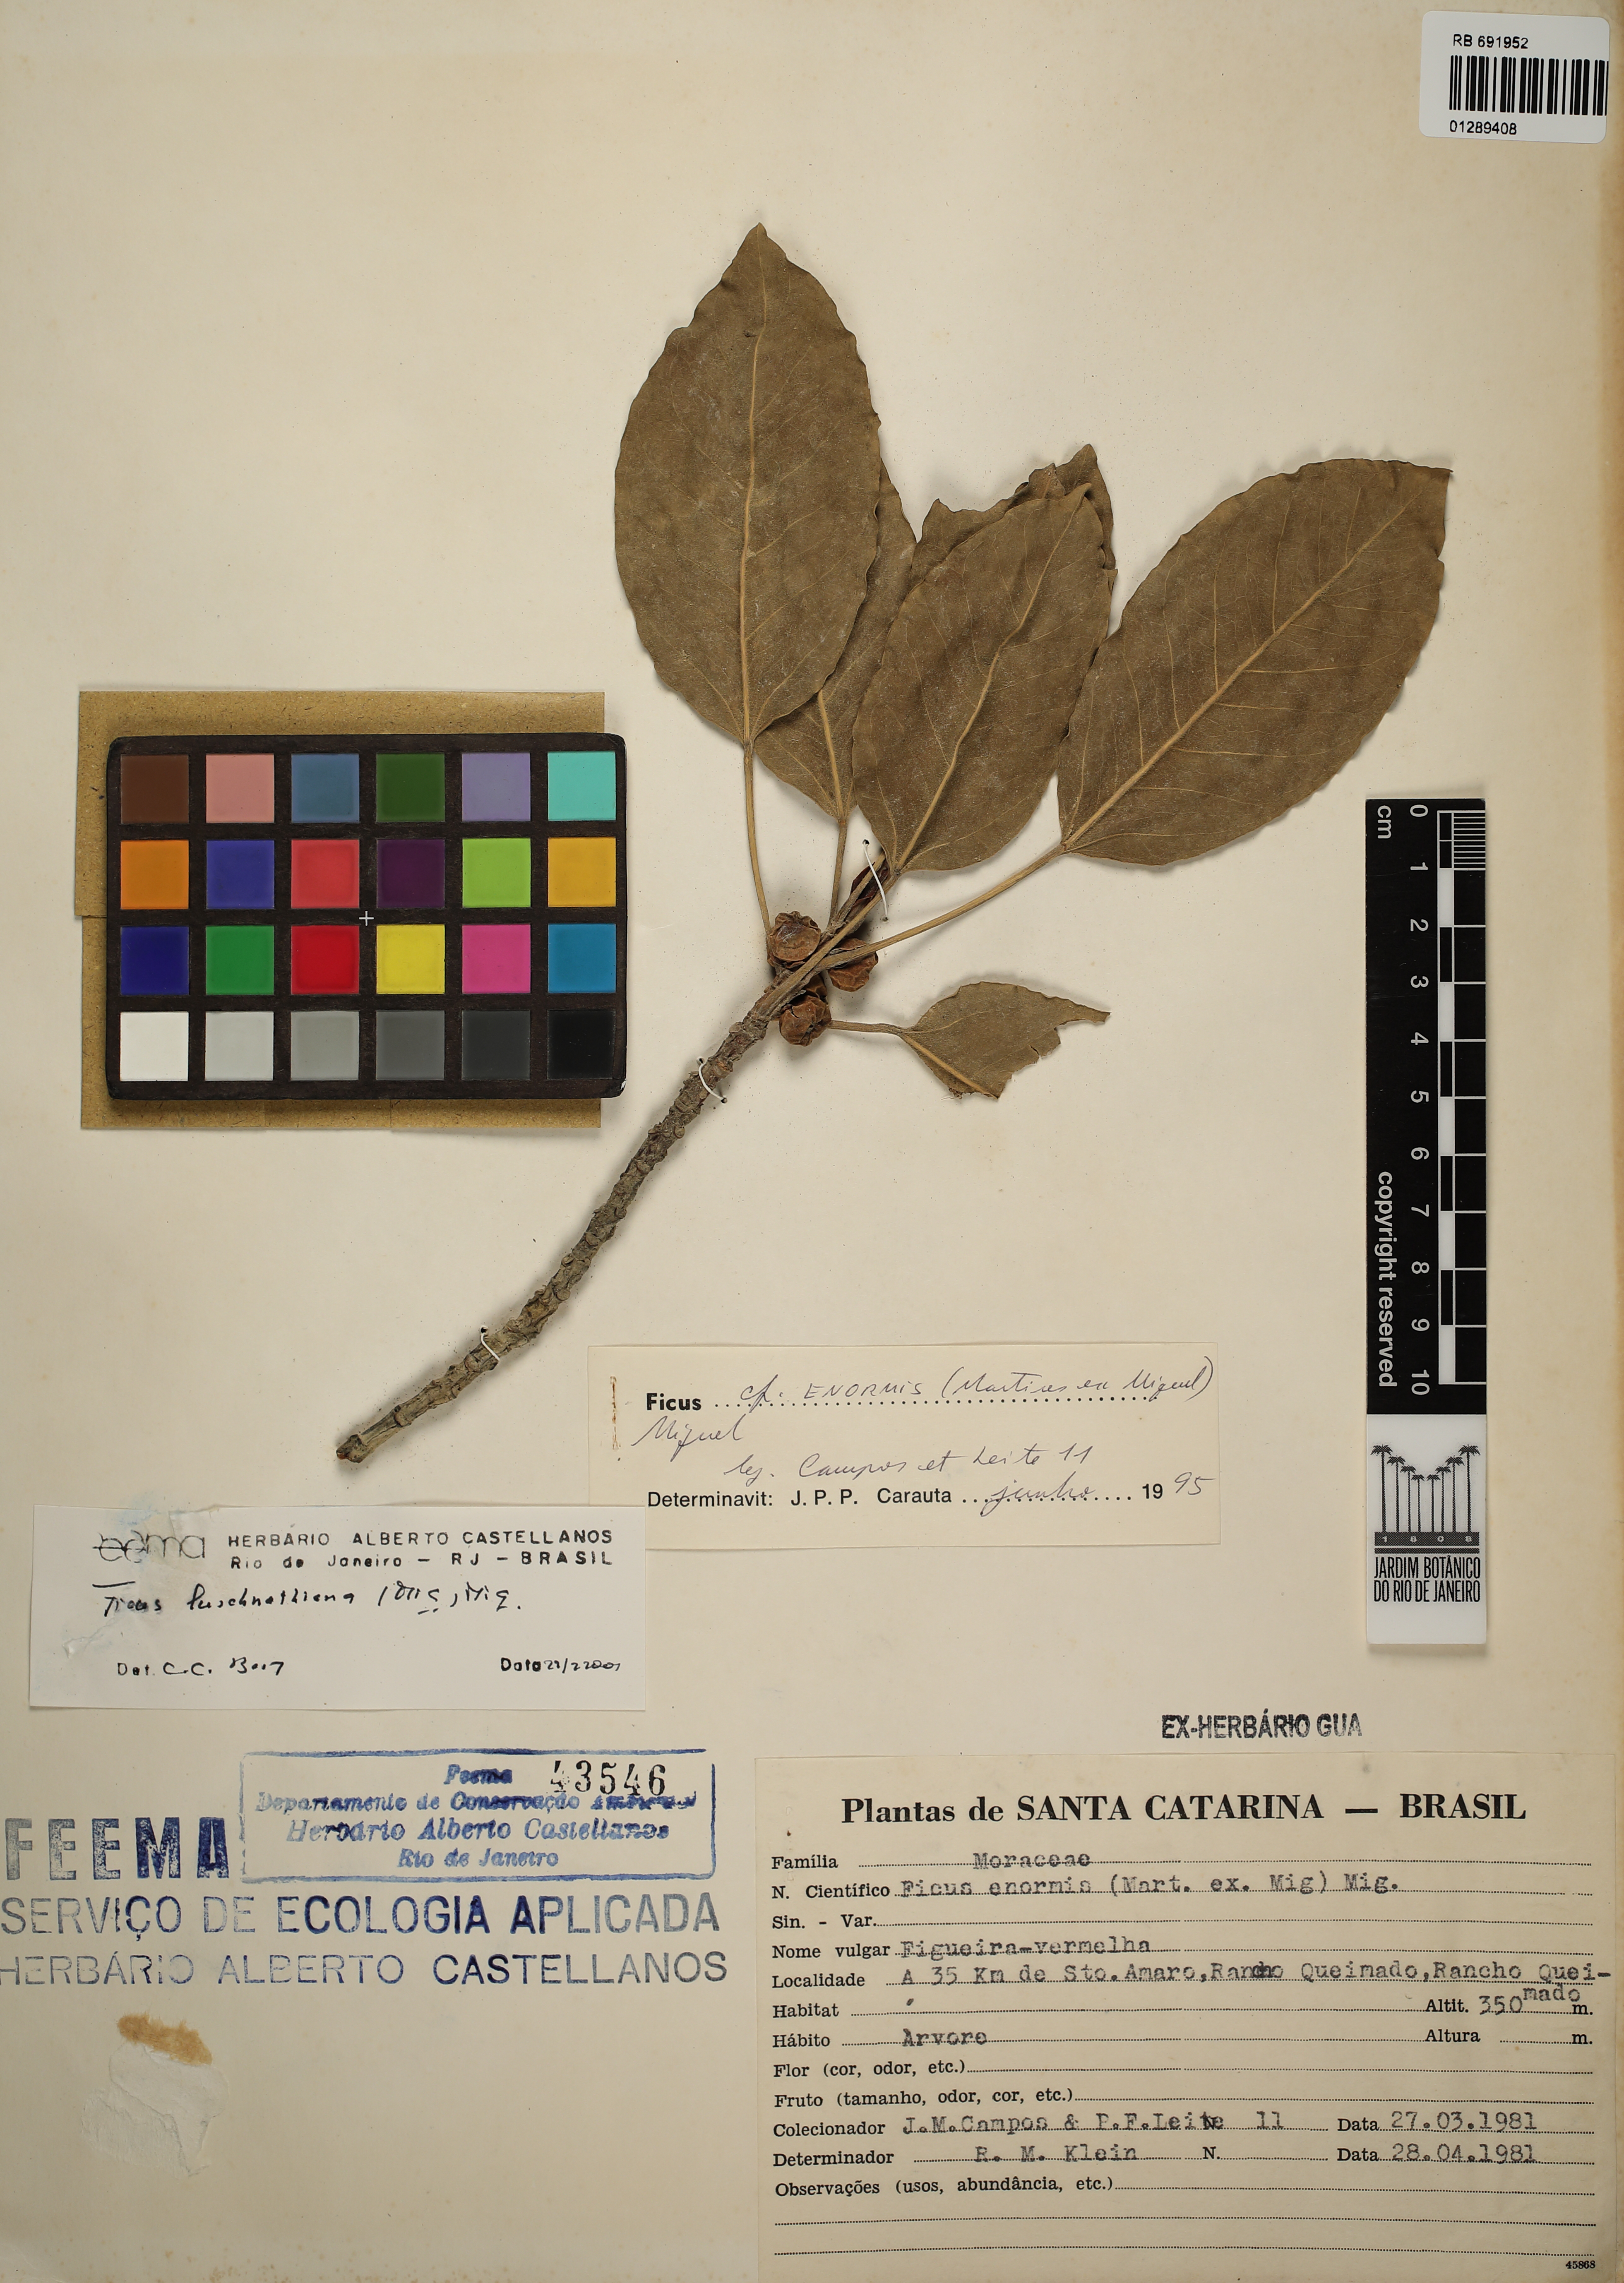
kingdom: Plantae
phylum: Tracheophyta
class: Magnoliopsida
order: Rosales
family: Moraceae
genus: Ficus
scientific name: Ficus luschnathiana
